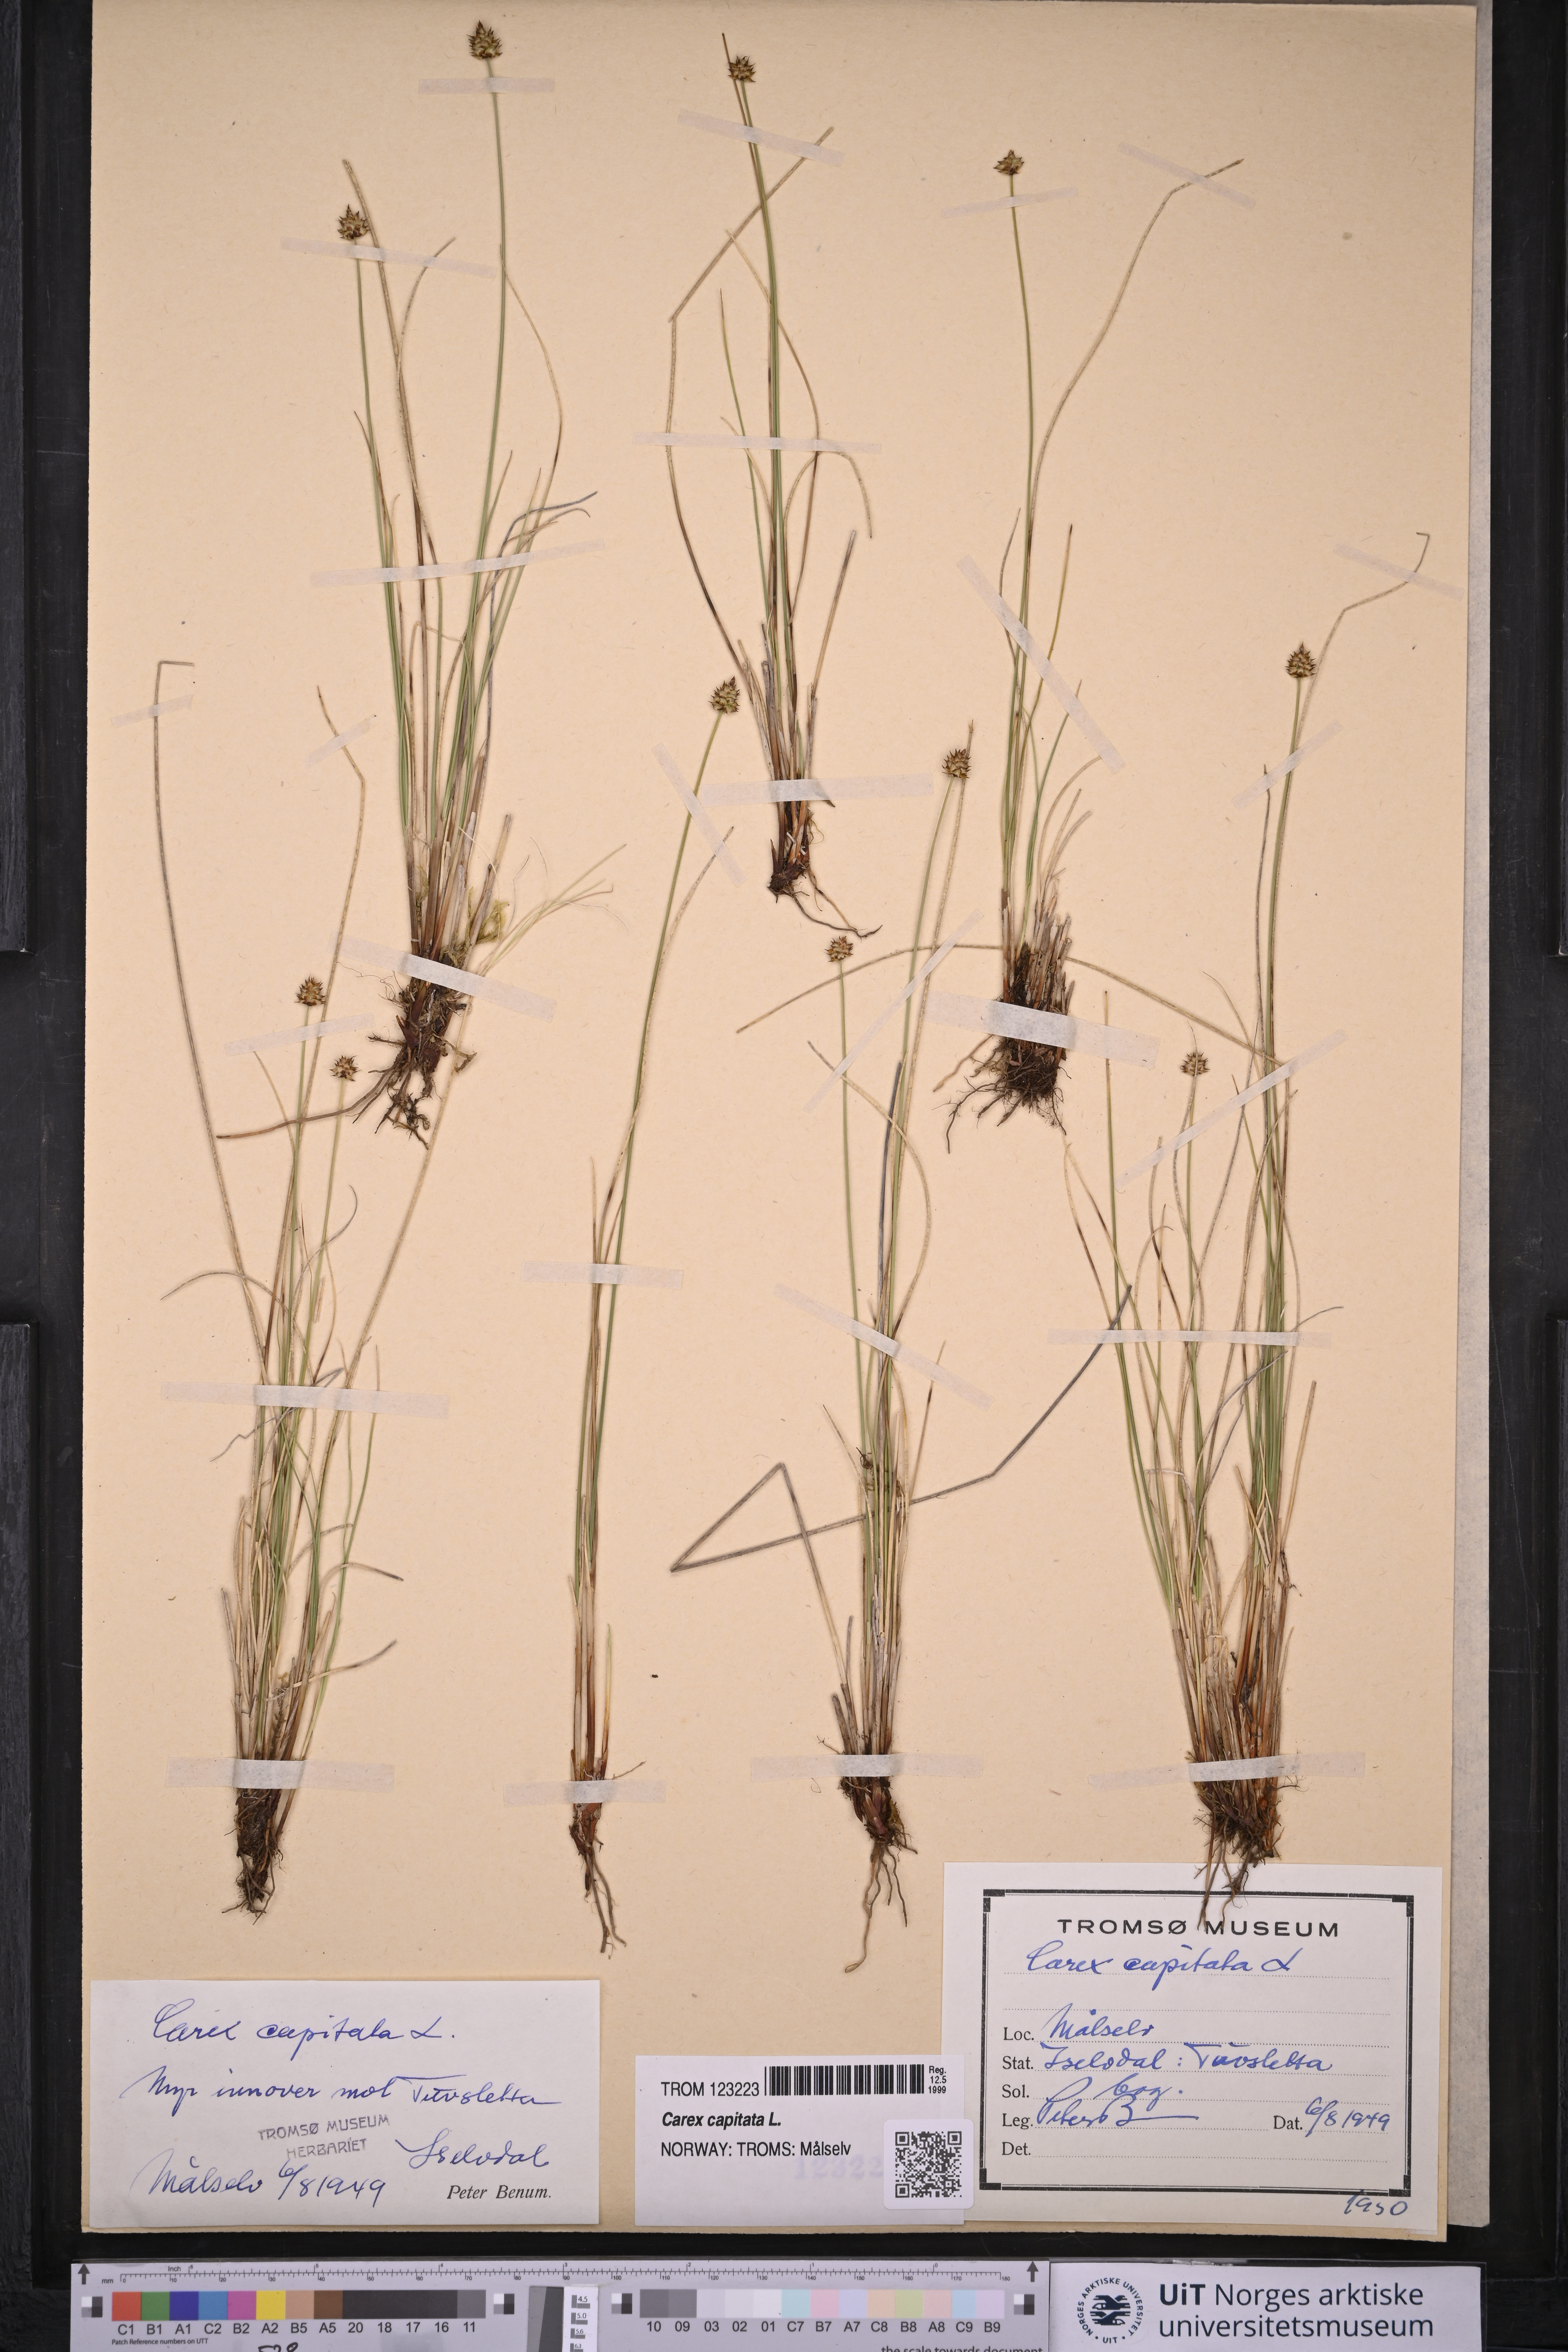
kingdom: Plantae
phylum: Tracheophyta
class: Liliopsida
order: Poales
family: Cyperaceae
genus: Carex
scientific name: Carex capitata
